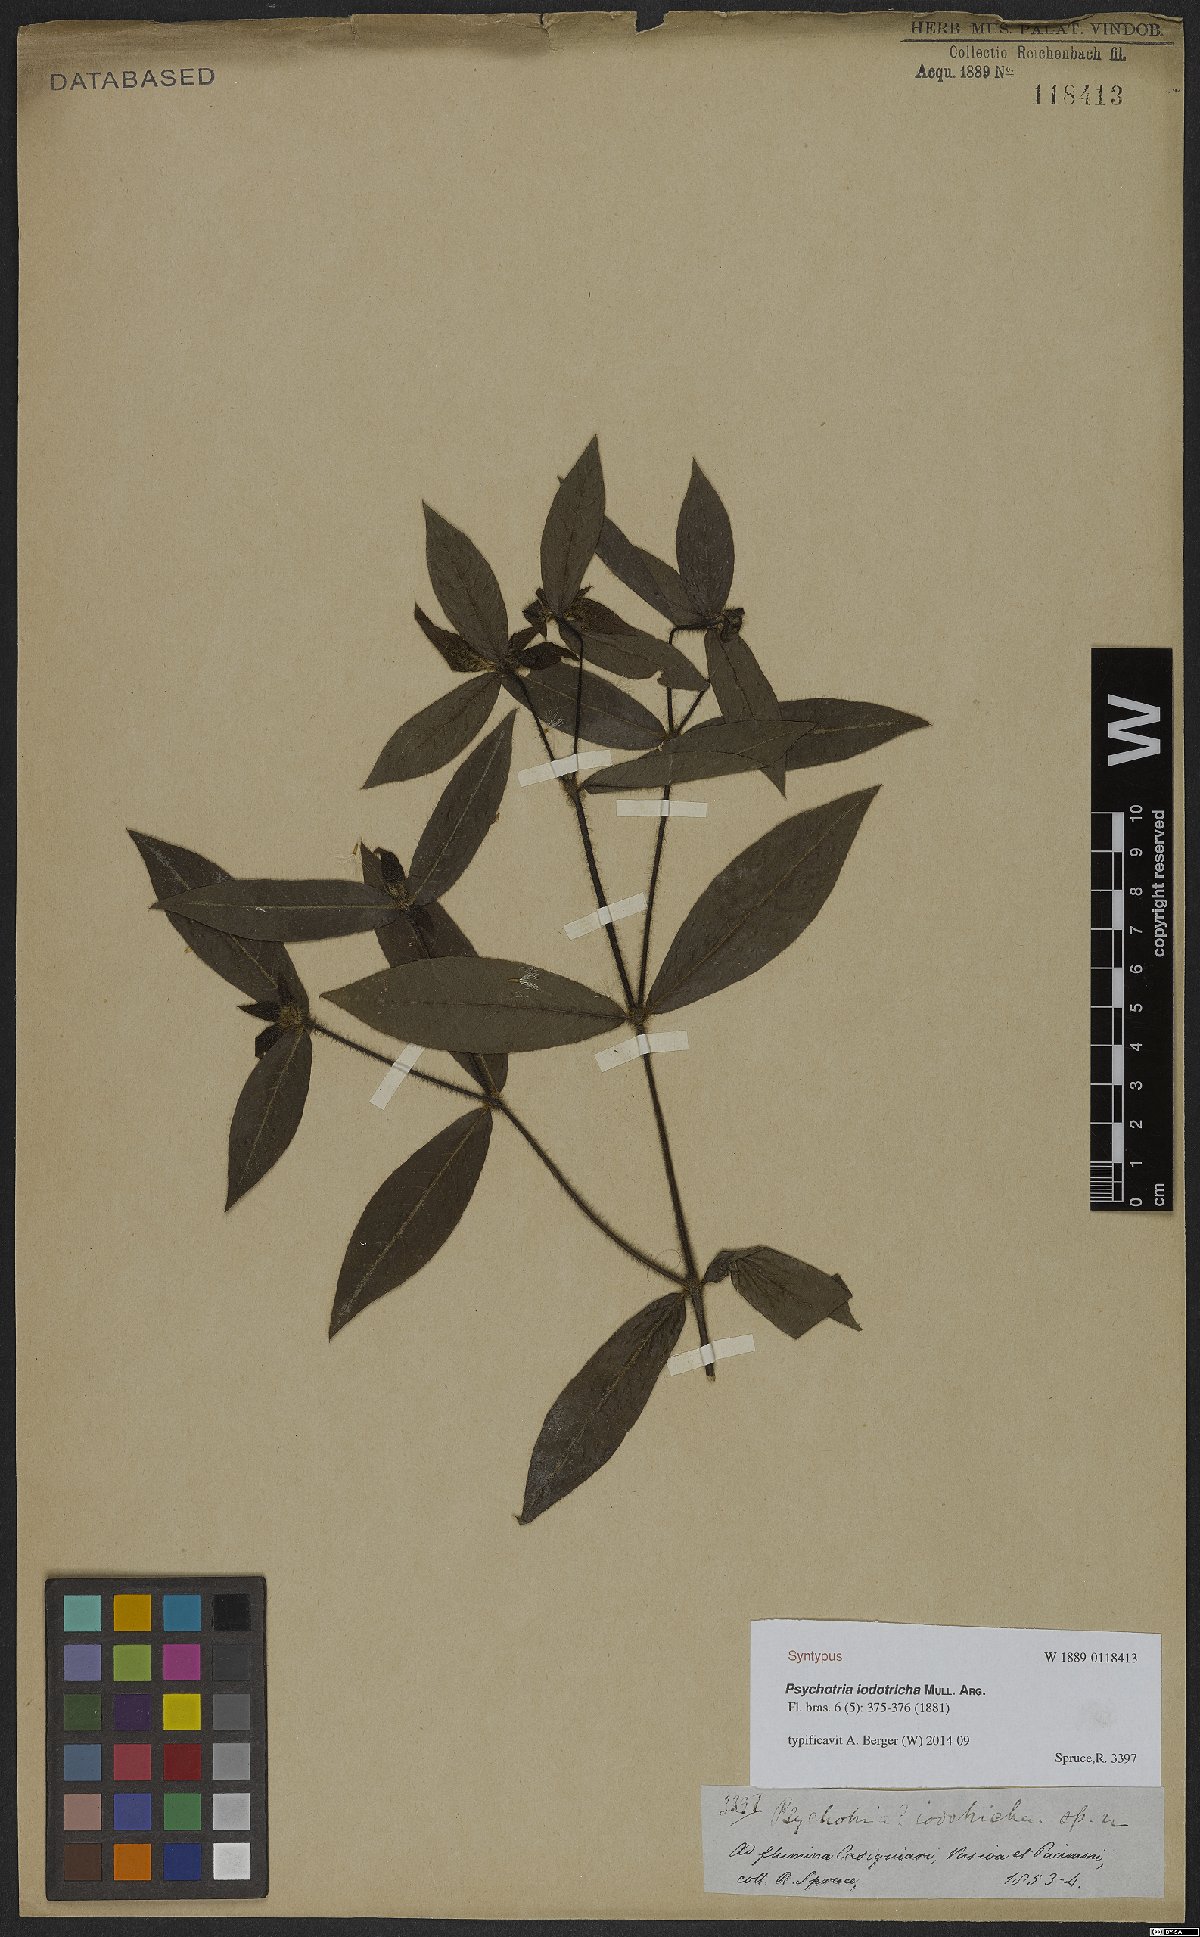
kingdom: Plantae
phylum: Tracheophyta
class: Magnoliopsida
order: Gentianales
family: Rubiaceae
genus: Palicourea
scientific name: Palicourea iodotricha
